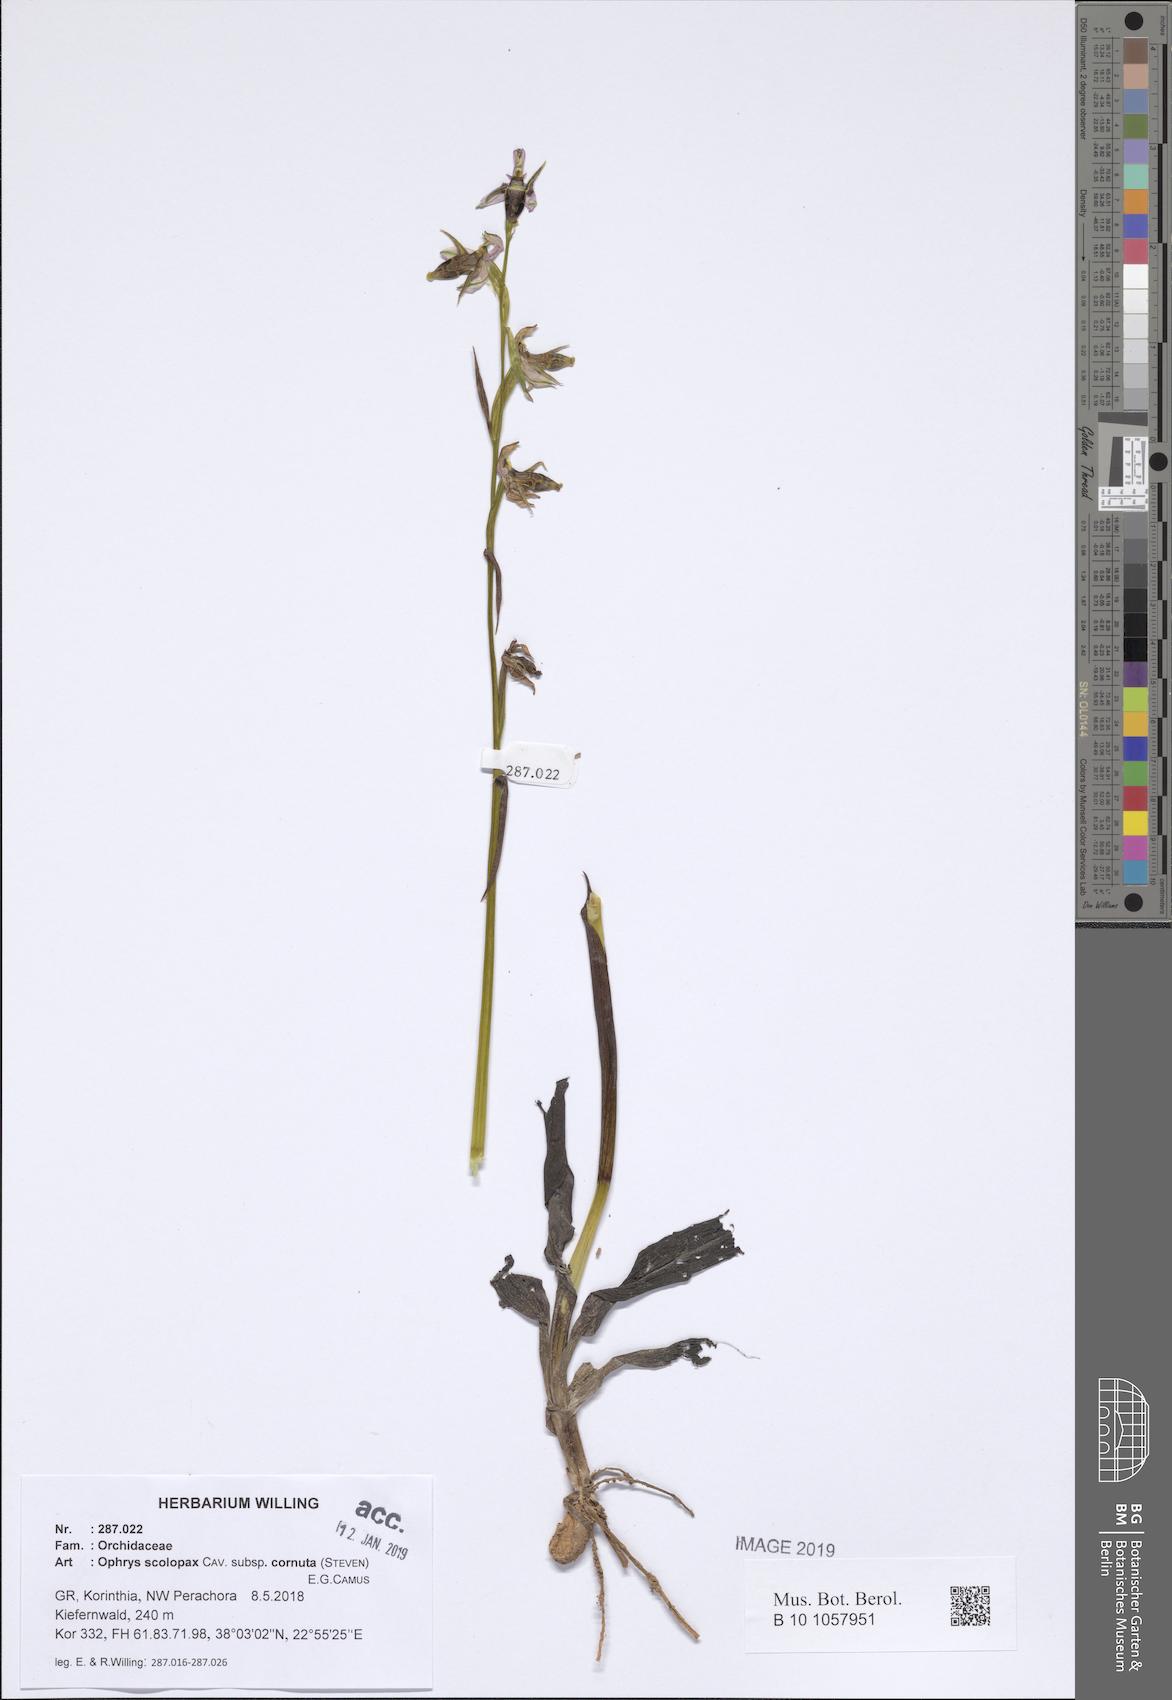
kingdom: Plantae
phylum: Tracheophyta
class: Liliopsida
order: Asparagales
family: Orchidaceae
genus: Ophrys
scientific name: Ophrys scolopax
